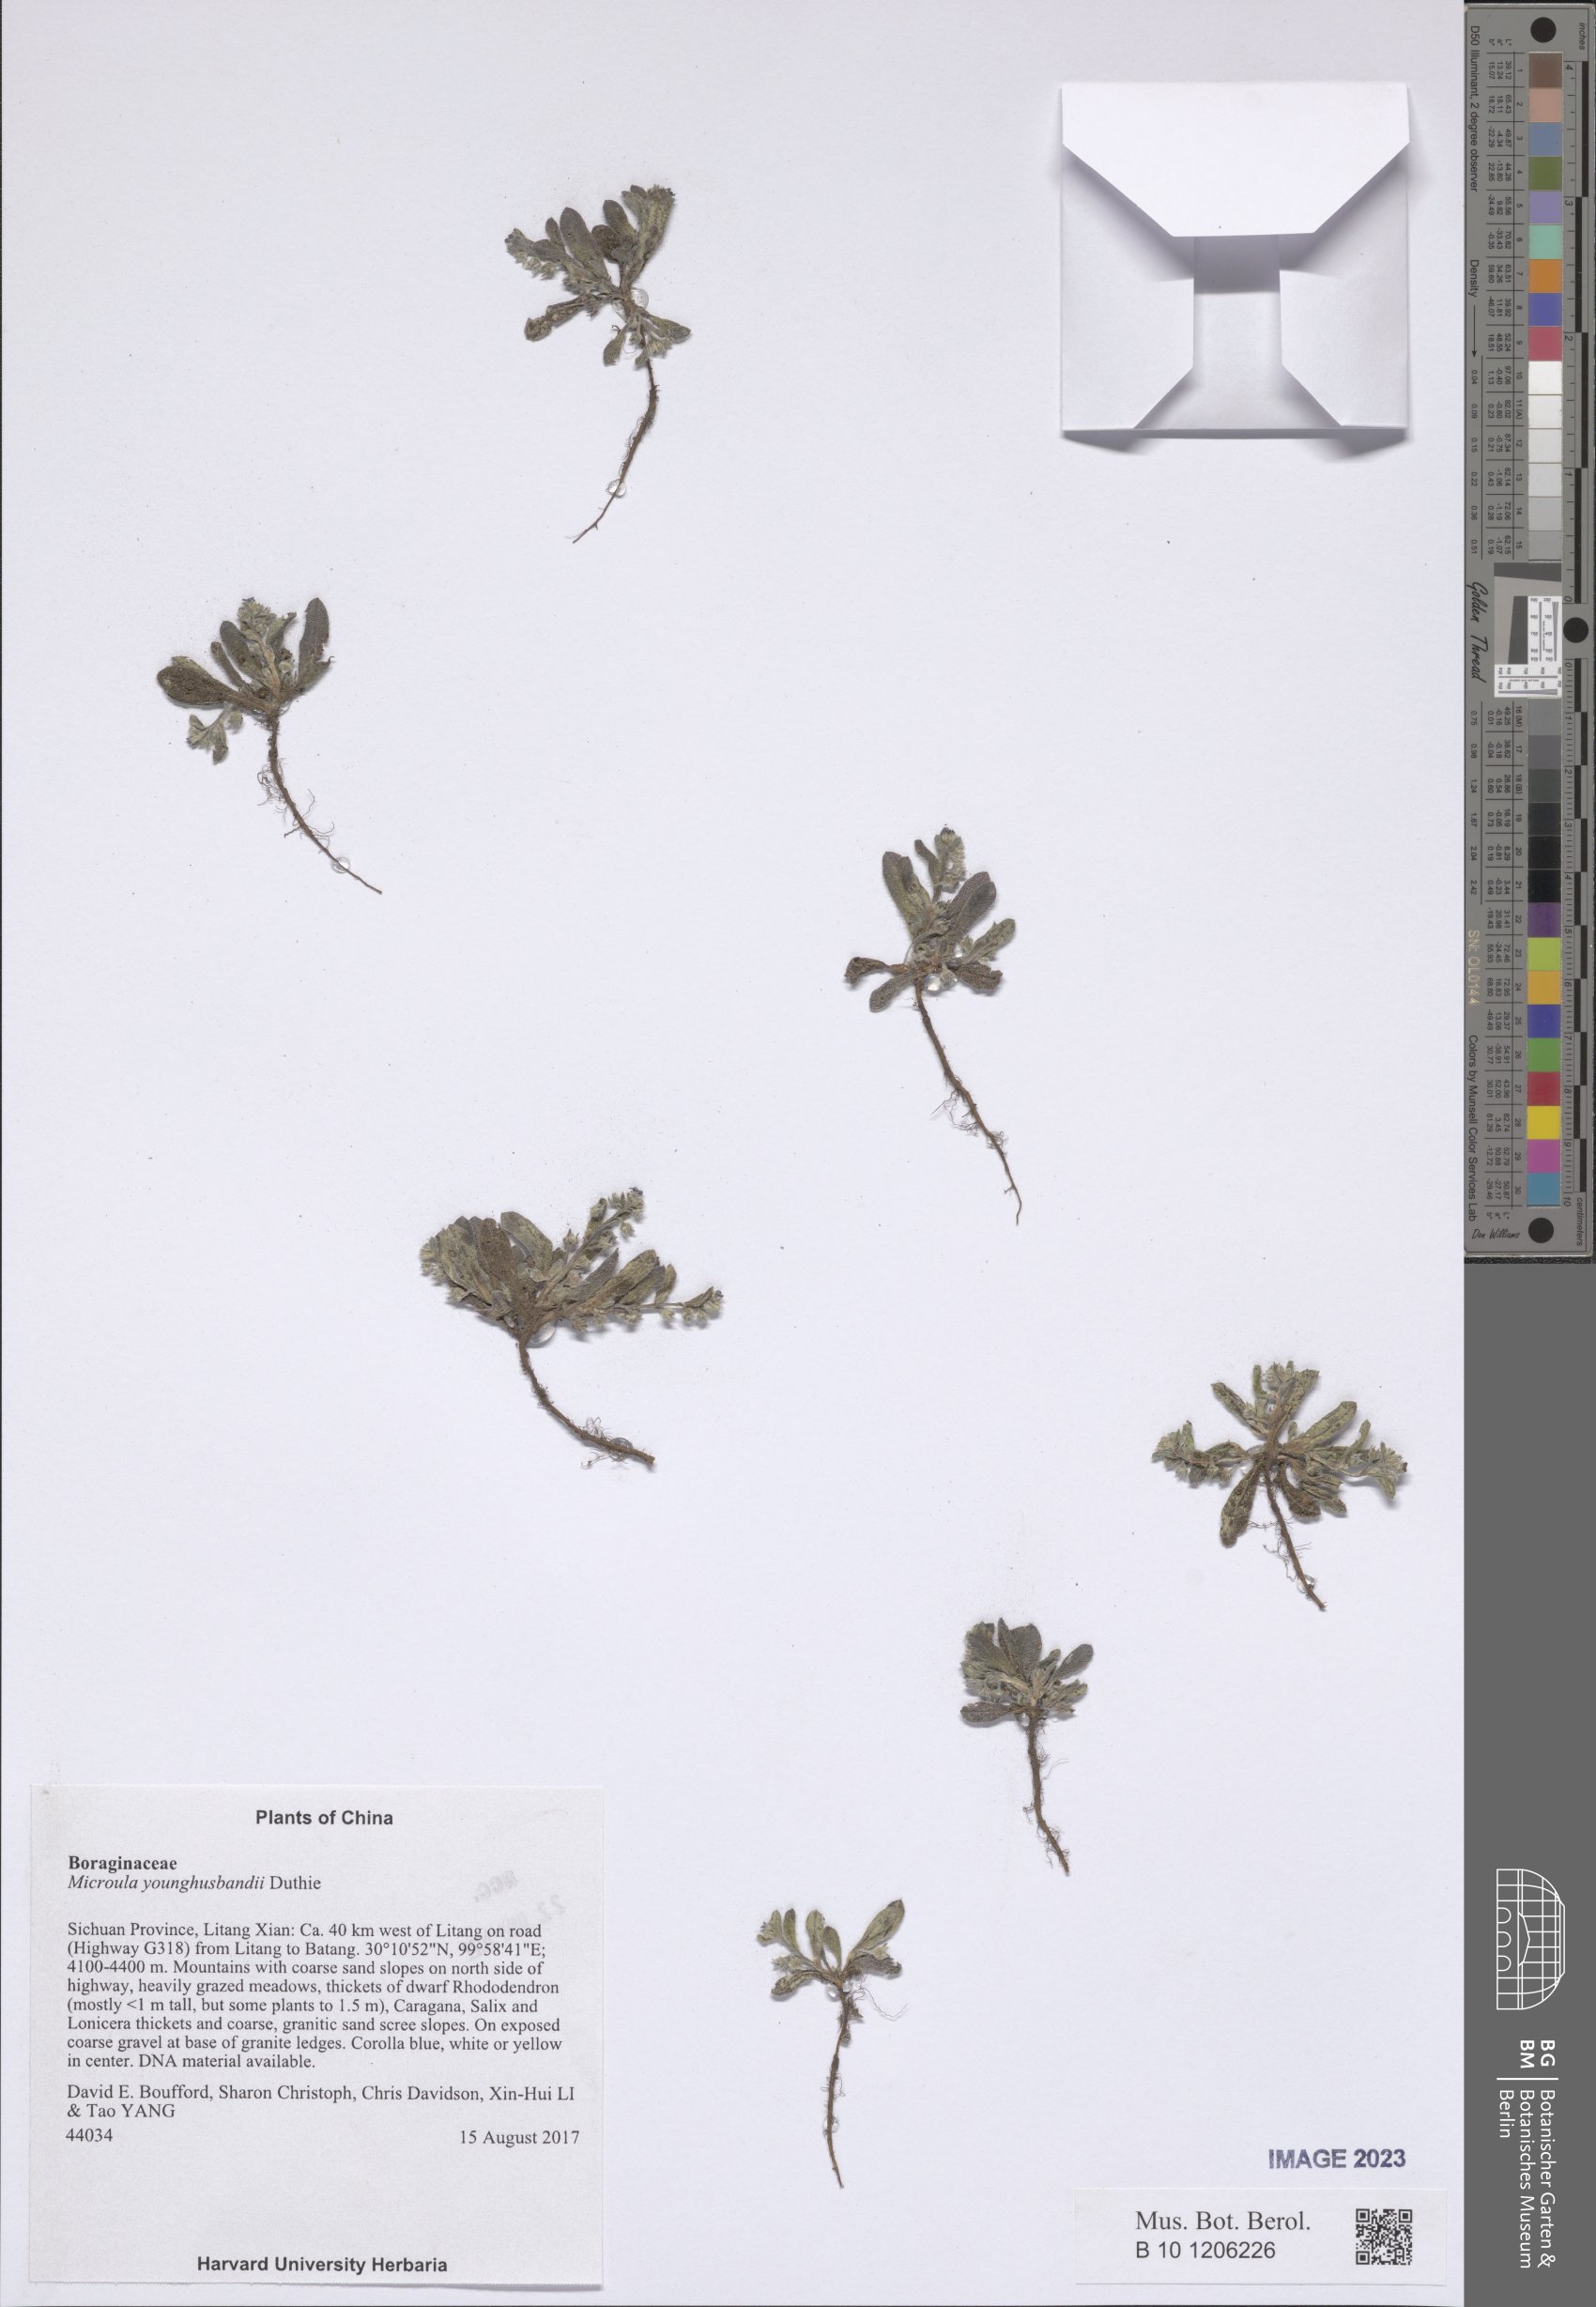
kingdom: Plantae
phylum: Tracheophyta
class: Magnoliopsida
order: Boraginales
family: Boraginaceae
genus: Microula
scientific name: Microula younghusbandii
